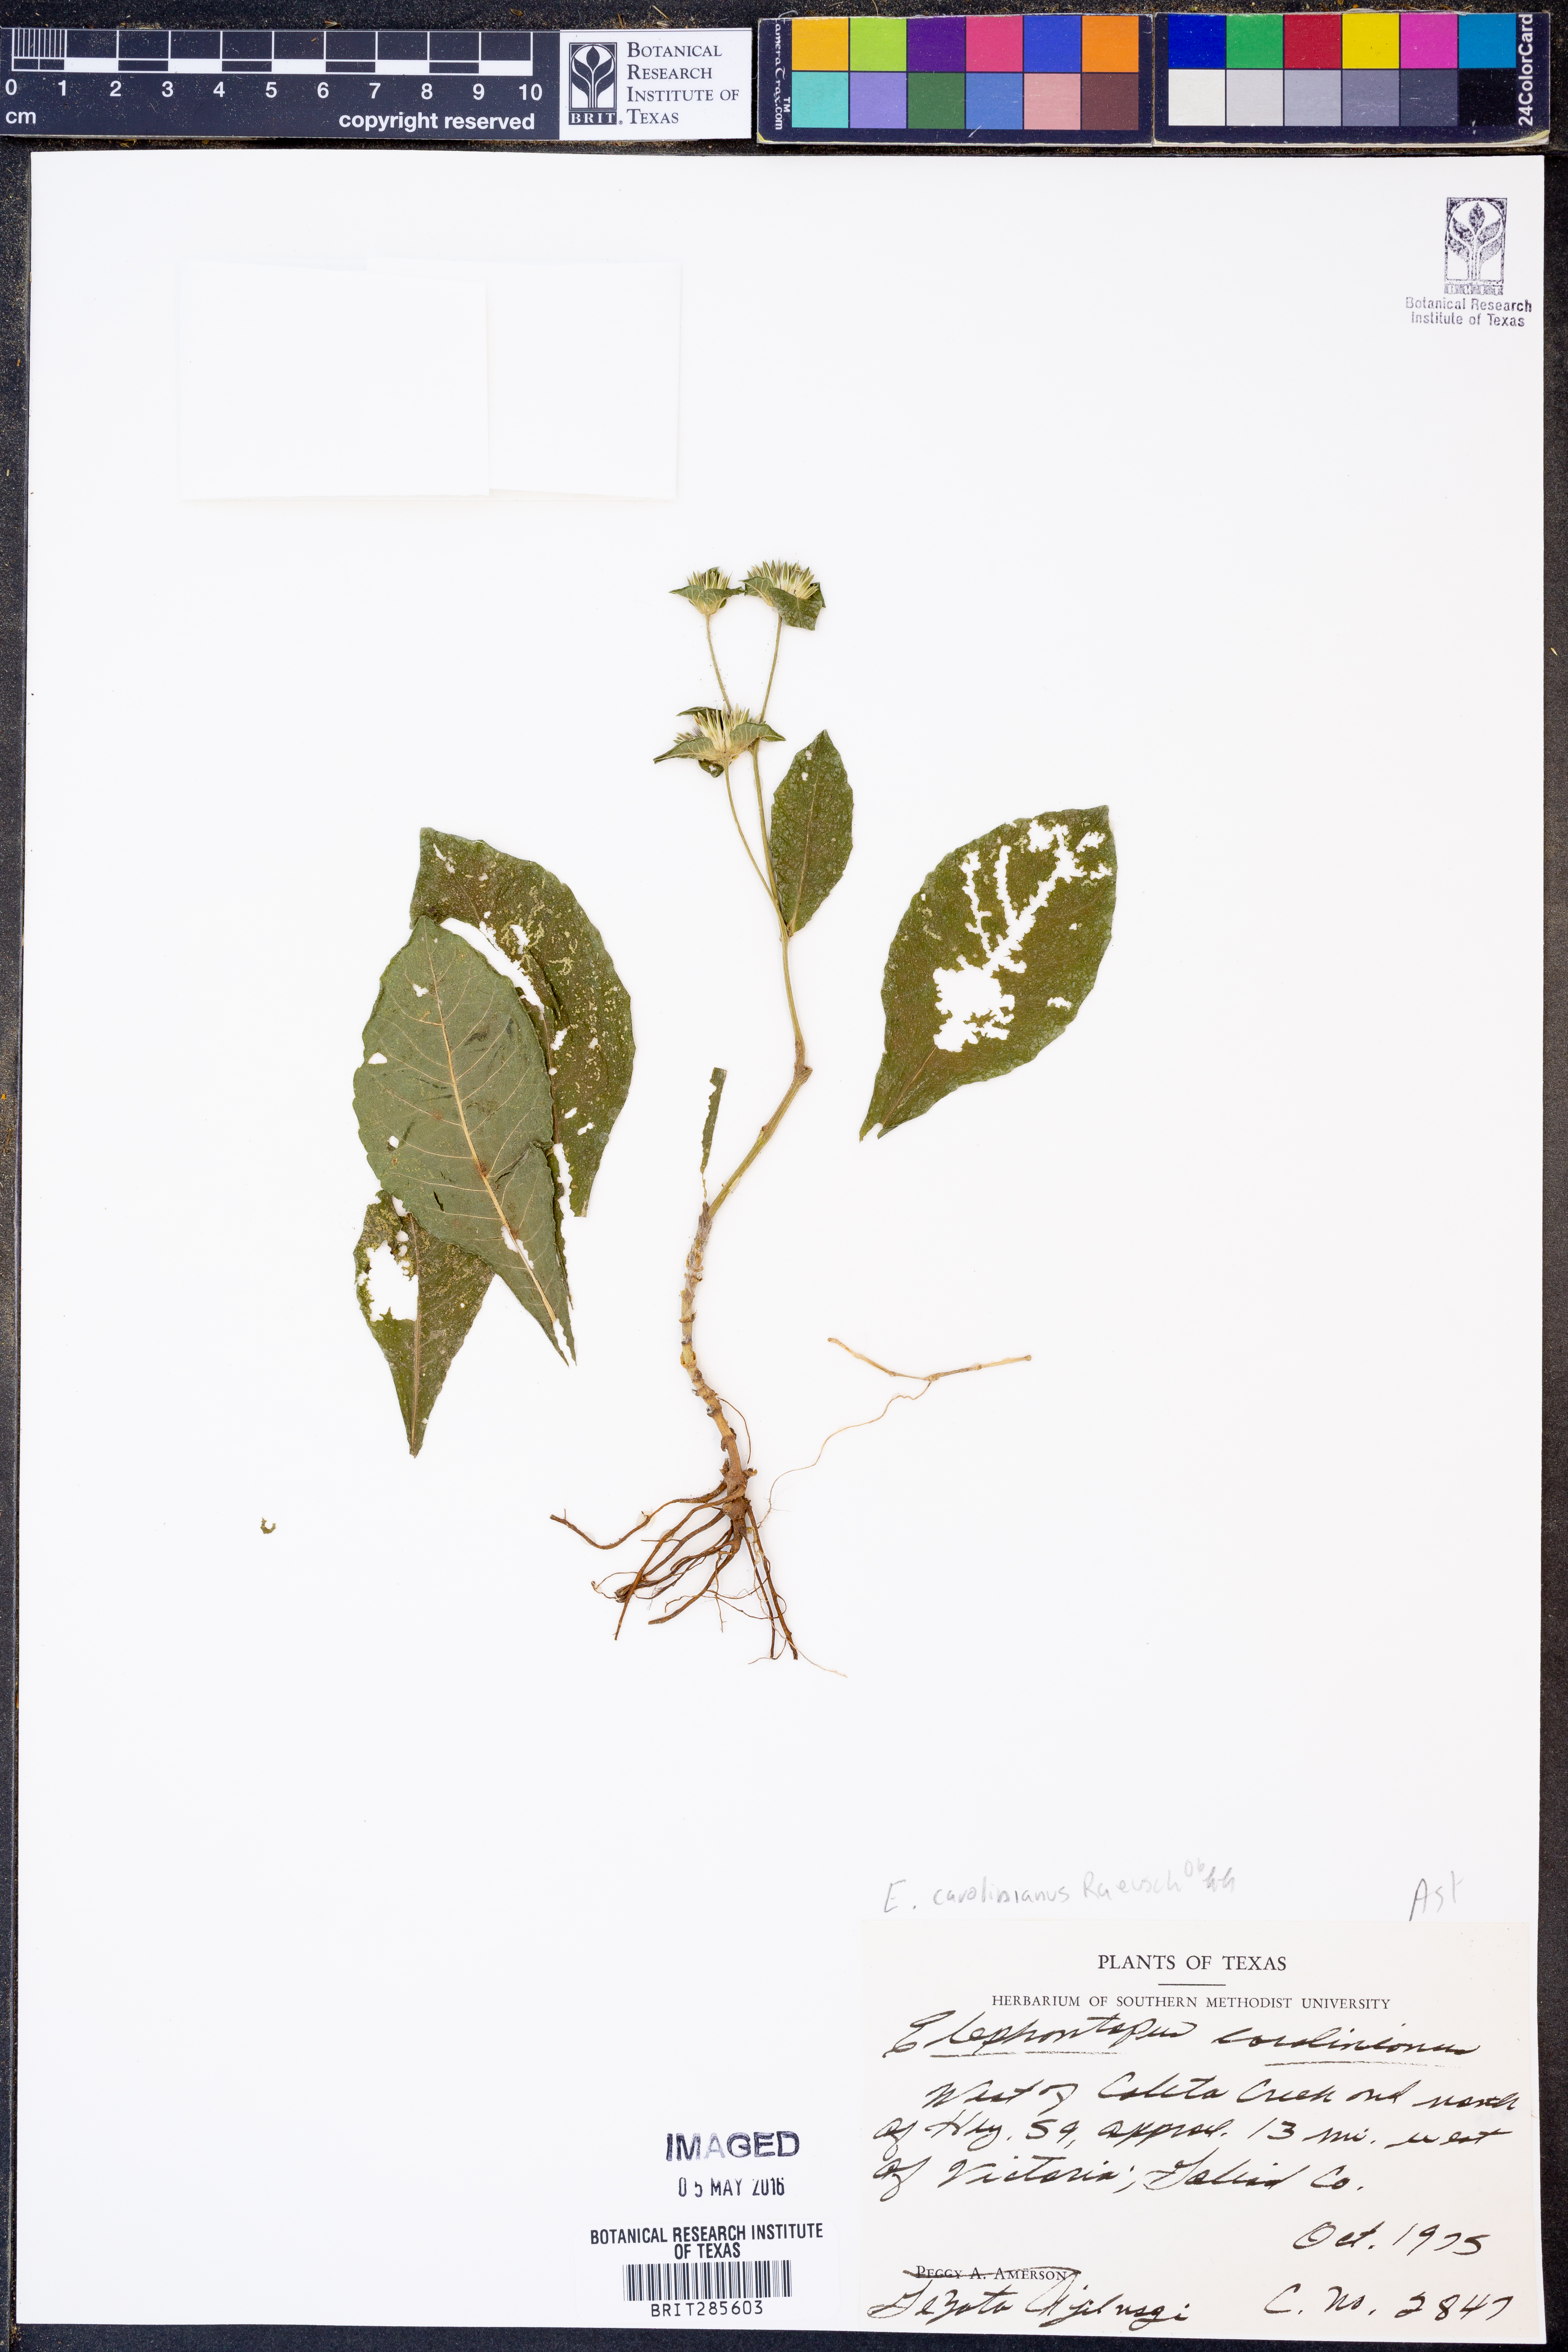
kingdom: Plantae
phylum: Tracheophyta
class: Magnoliopsida
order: Asterales
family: Asteraceae
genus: Elephantopus
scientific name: Elephantopus carolinianus
